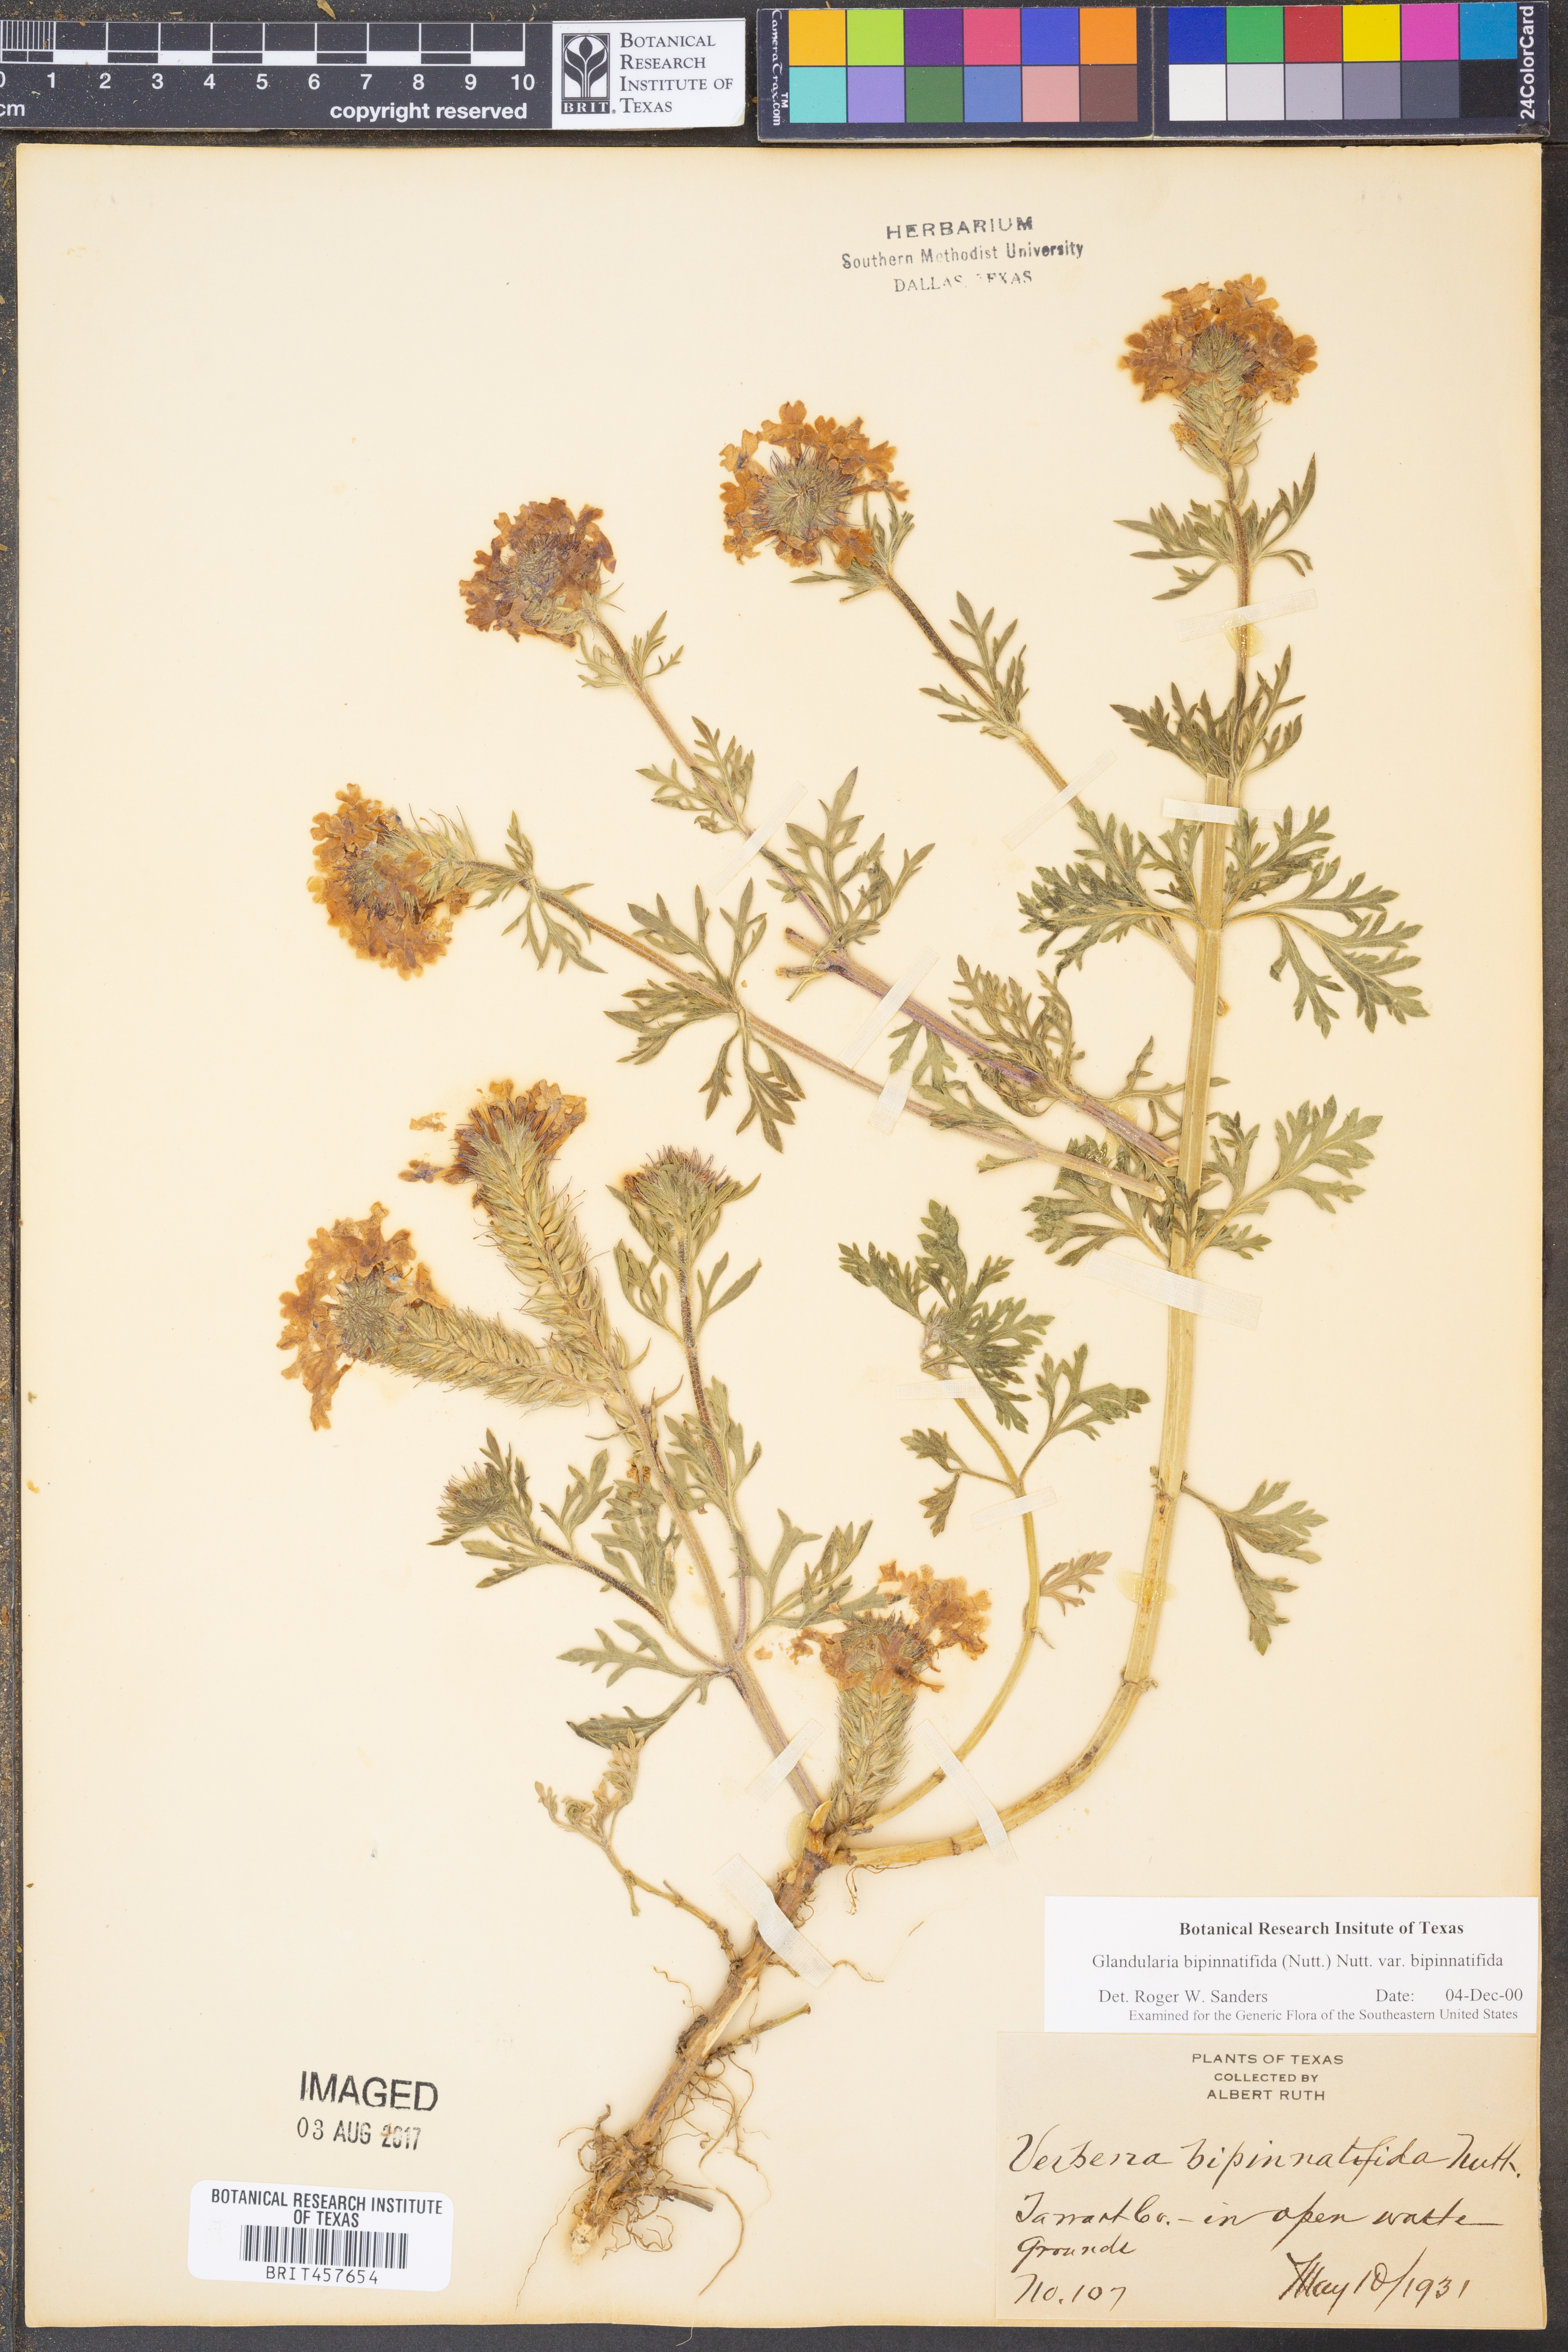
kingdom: Plantae
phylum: Tracheophyta
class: Magnoliopsida
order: Lamiales
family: Verbenaceae
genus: Verbena
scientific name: Verbena bipinnatifida
